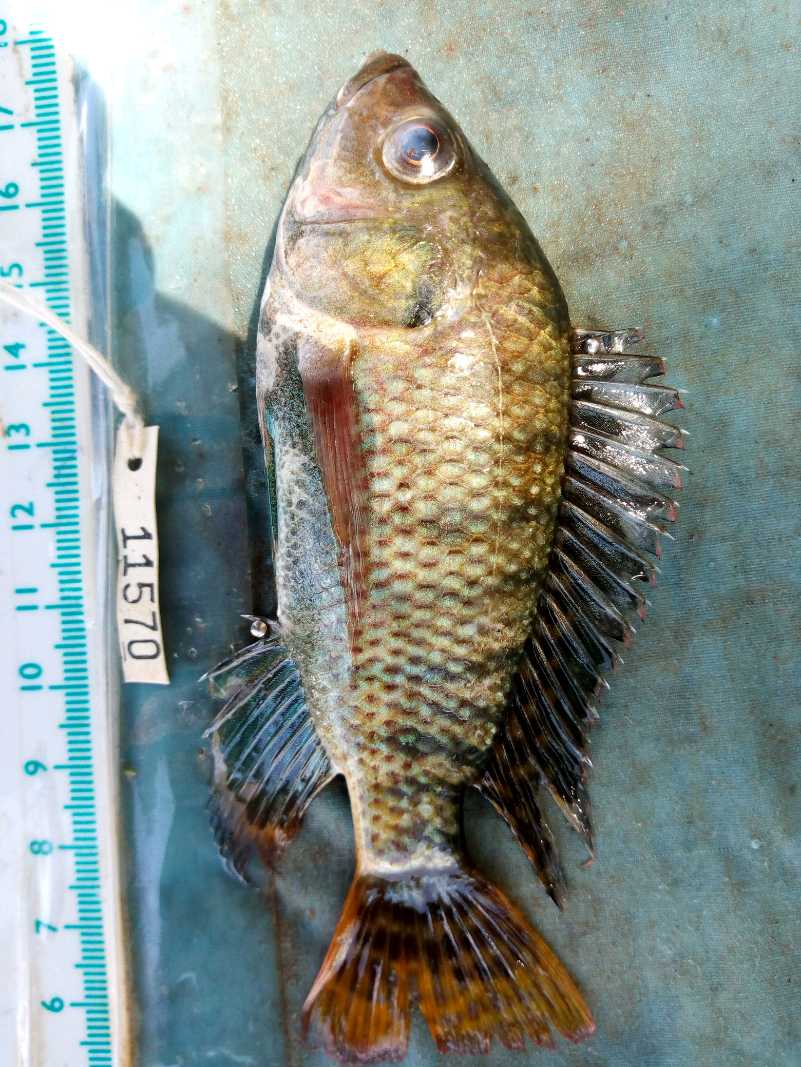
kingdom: Animalia
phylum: Chordata
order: Perciformes
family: Cichlidae
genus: Oreochromis
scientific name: Oreochromis spilurus
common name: Sabaki tilapia
